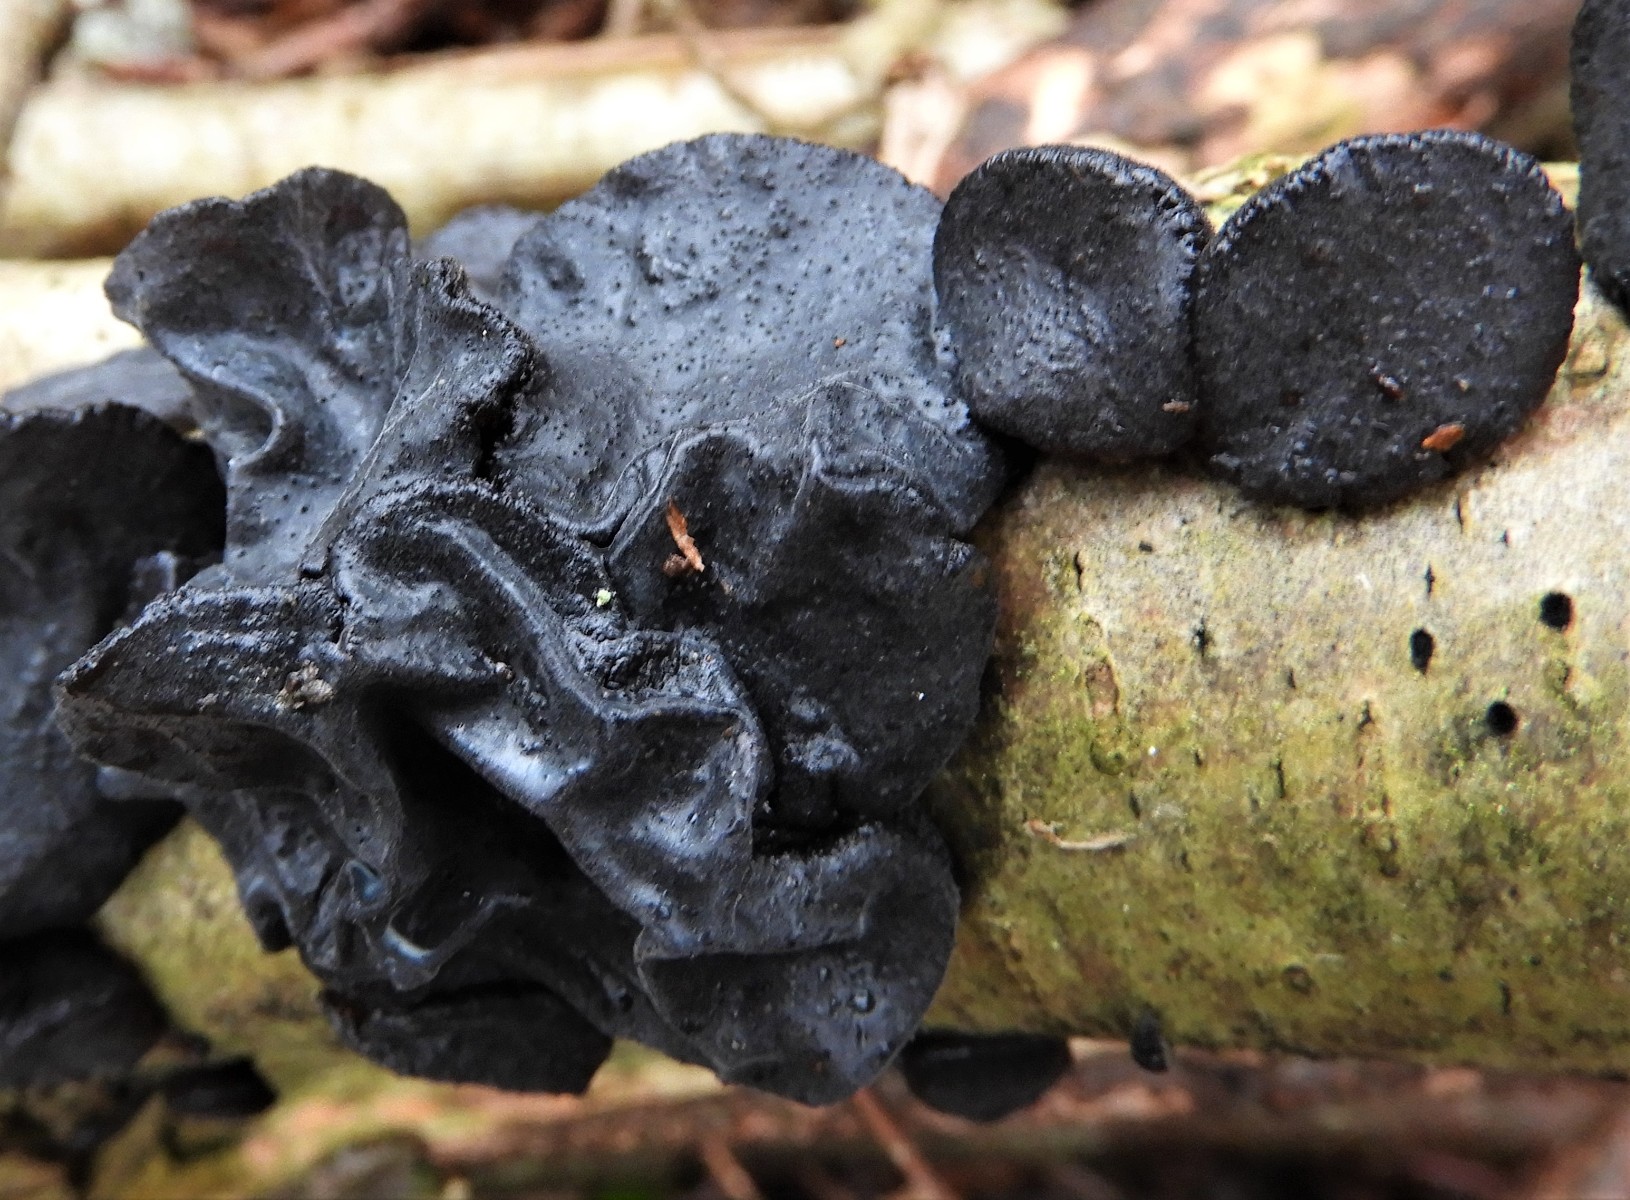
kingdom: Fungi
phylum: Basidiomycota
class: Agaricomycetes
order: Auriculariales
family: Auriculariaceae
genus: Exidia
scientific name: Exidia glandulosa
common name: ege-bævretop
